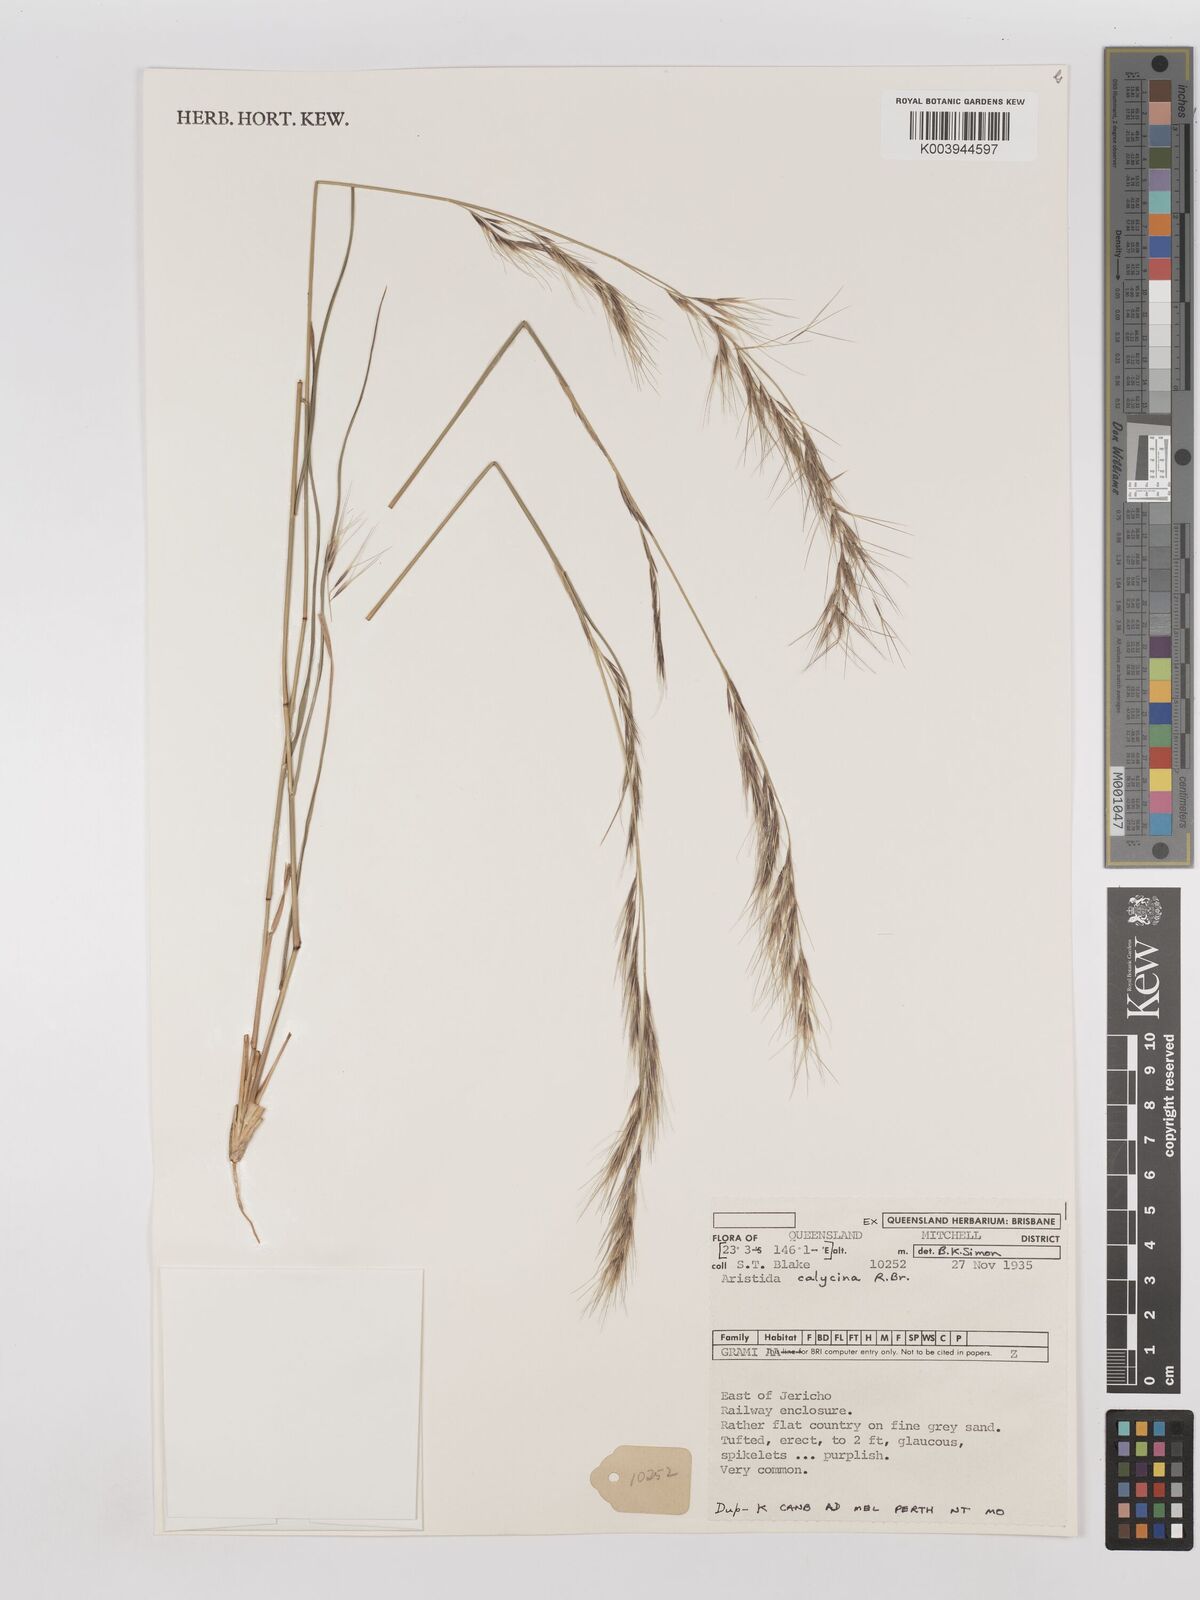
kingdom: Plantae
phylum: Tracheophyta
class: Liliopsida
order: Poales
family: Poaceae
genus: Aristida
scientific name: Aristida calycina
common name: Dark wire grass
